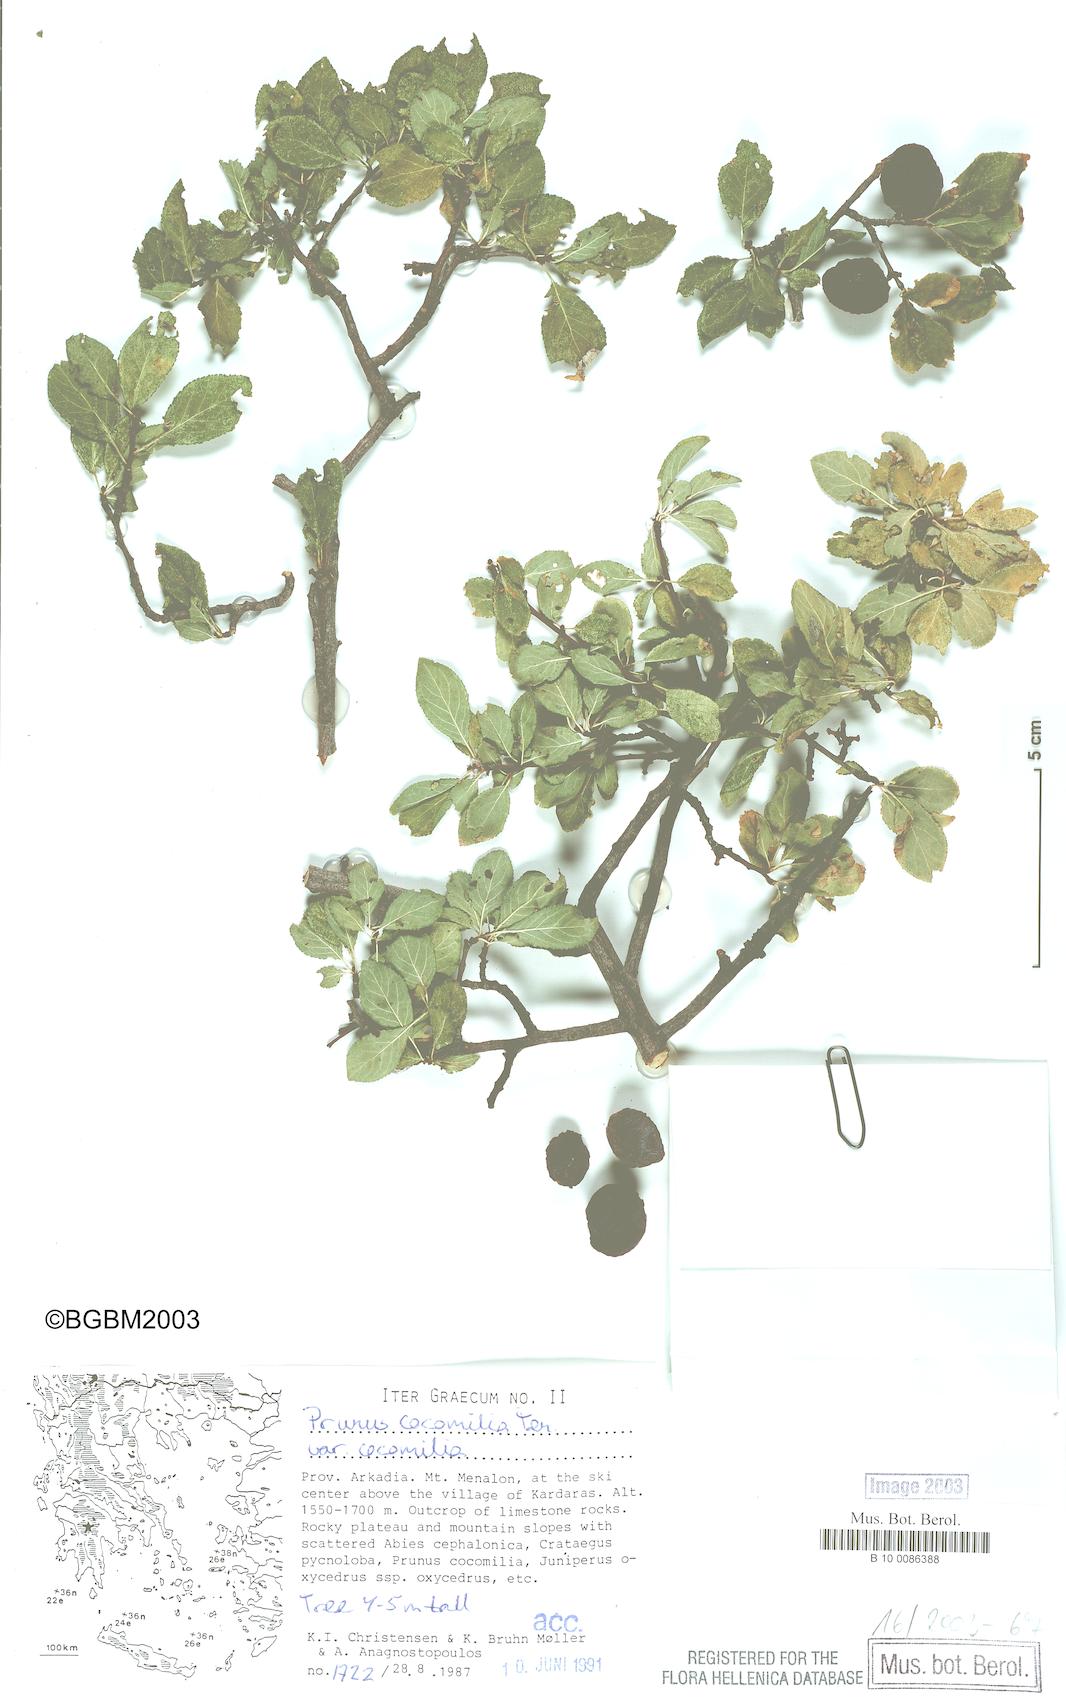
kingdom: Plantae
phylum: Tracheophyta
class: Magnoliopsida
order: Rosales
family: Rosaceae
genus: Prunus
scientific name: Prunus cocomilia
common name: Italian plum
